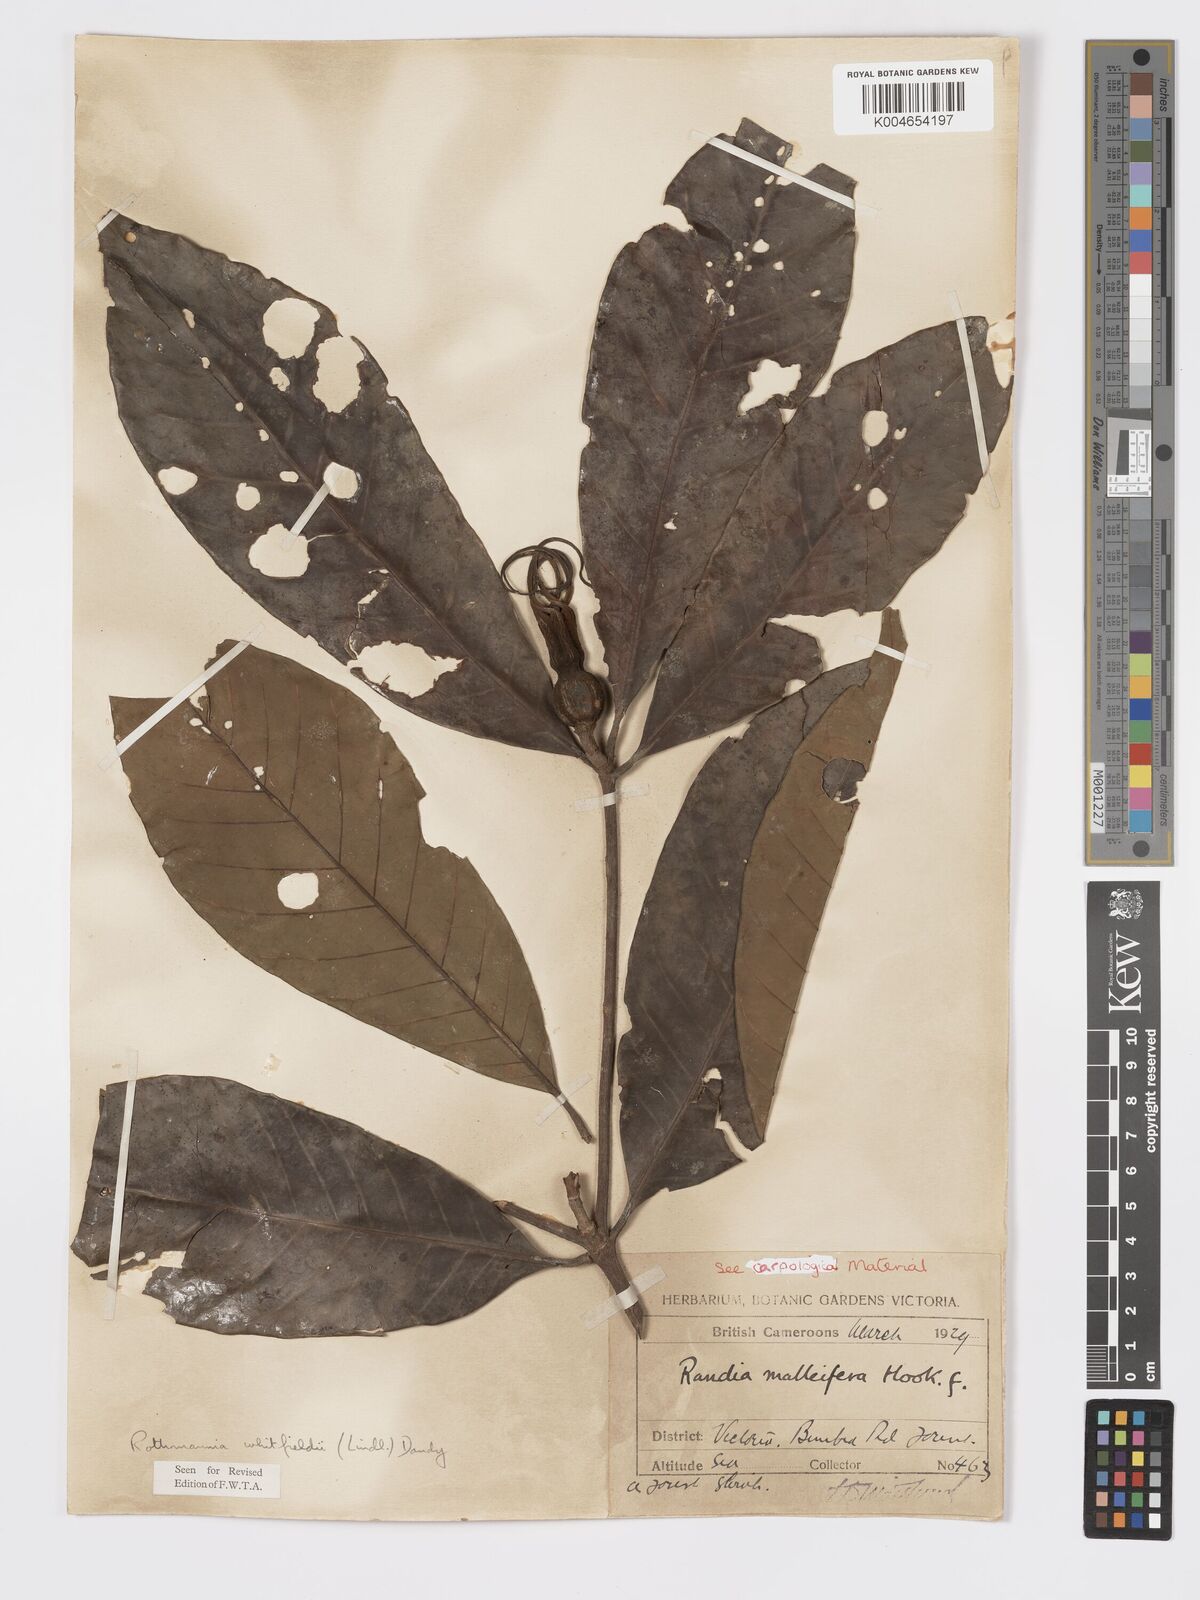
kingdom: Plantae
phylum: Tracheophyta
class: Magnoliopsida
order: Gentianales
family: Rubiaceae
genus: Rothmannia
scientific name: Rothmannia whitfieldii
